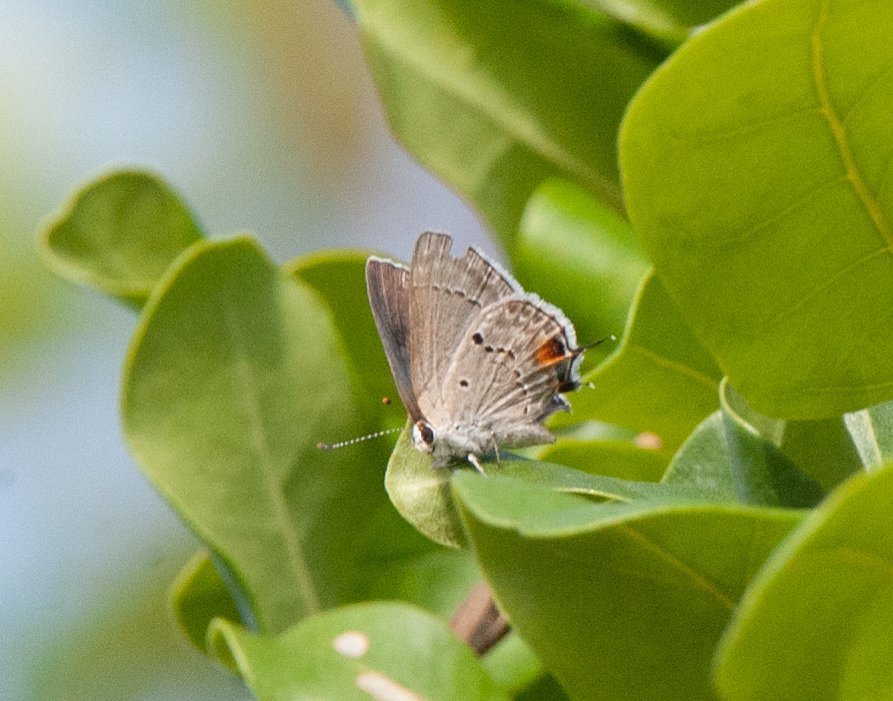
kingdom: Animalia
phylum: Arthropoda
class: Insecta
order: Lepidoptera
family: Lycaenidae
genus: Callicista
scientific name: Callicista columella
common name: Mallow Scrub-Hairstreak
